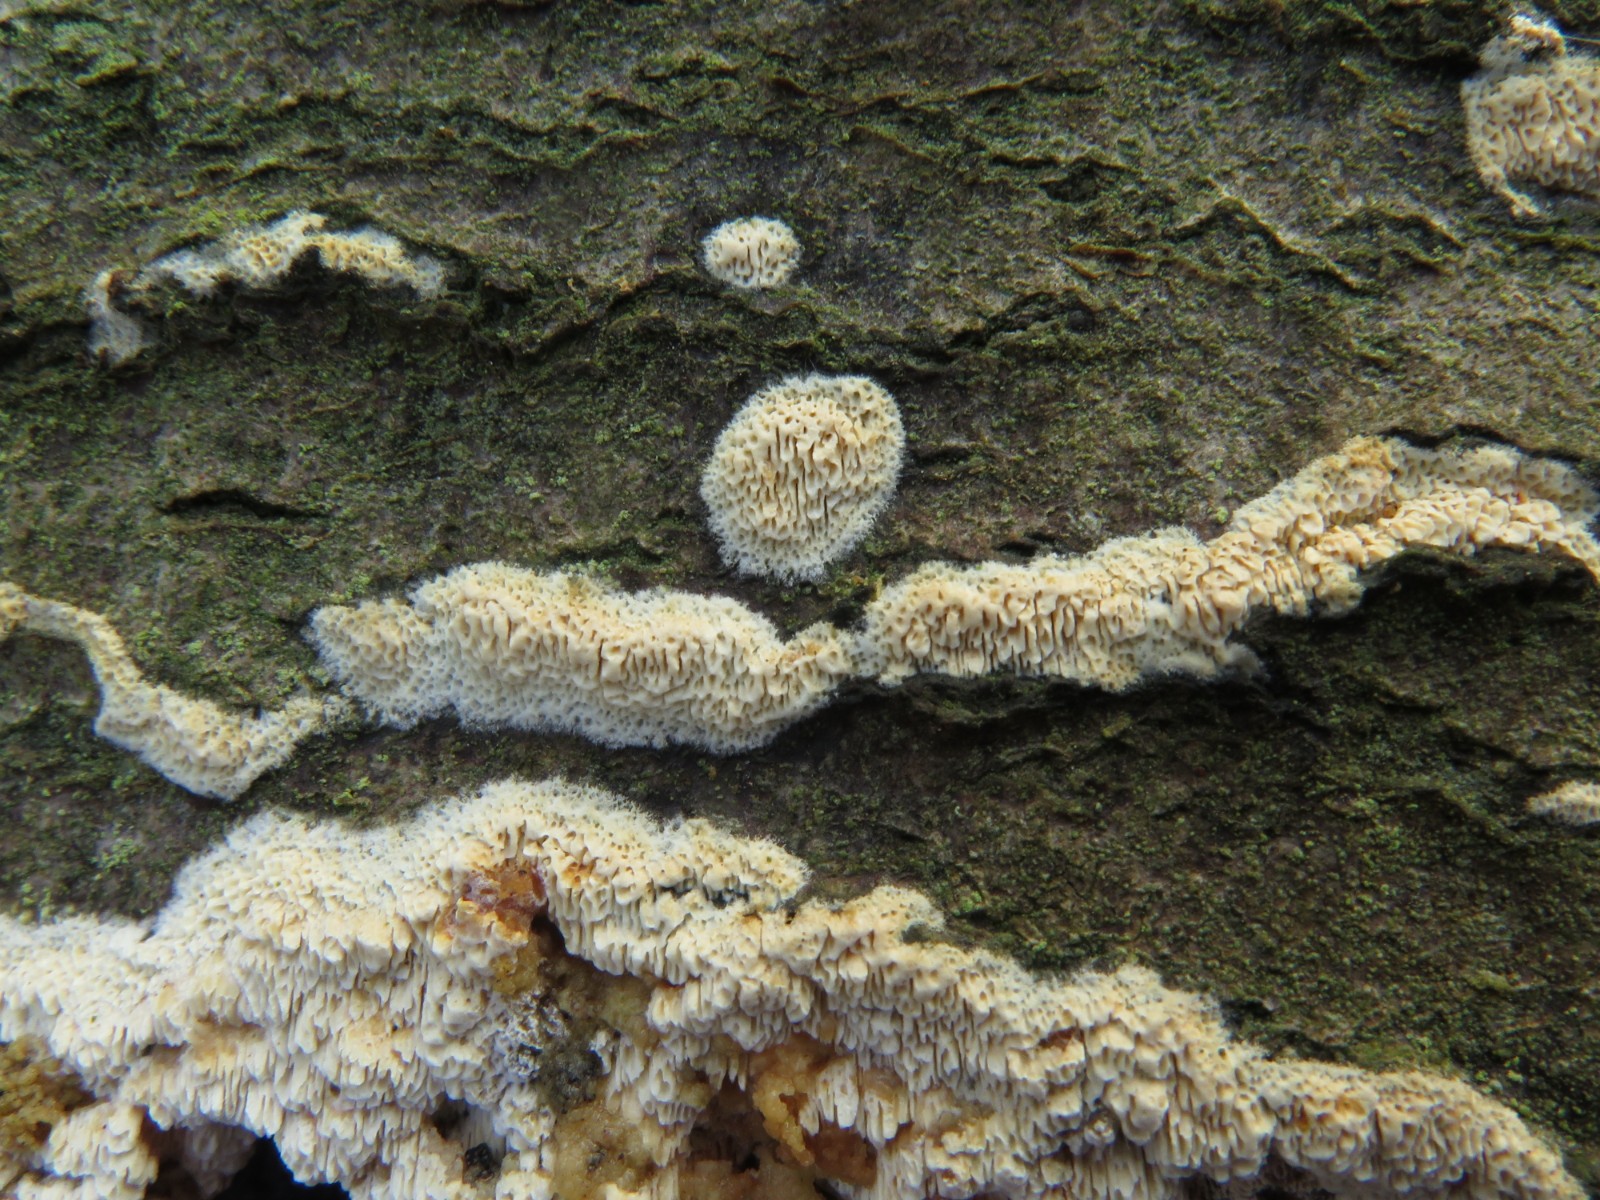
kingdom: Fungi
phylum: Basidiomycota
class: Agaricomycetes
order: Hymenochaetales
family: Schizoporaceae
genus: Schizopora
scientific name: Schizopora paradoxa
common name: hvid tandsvamp
